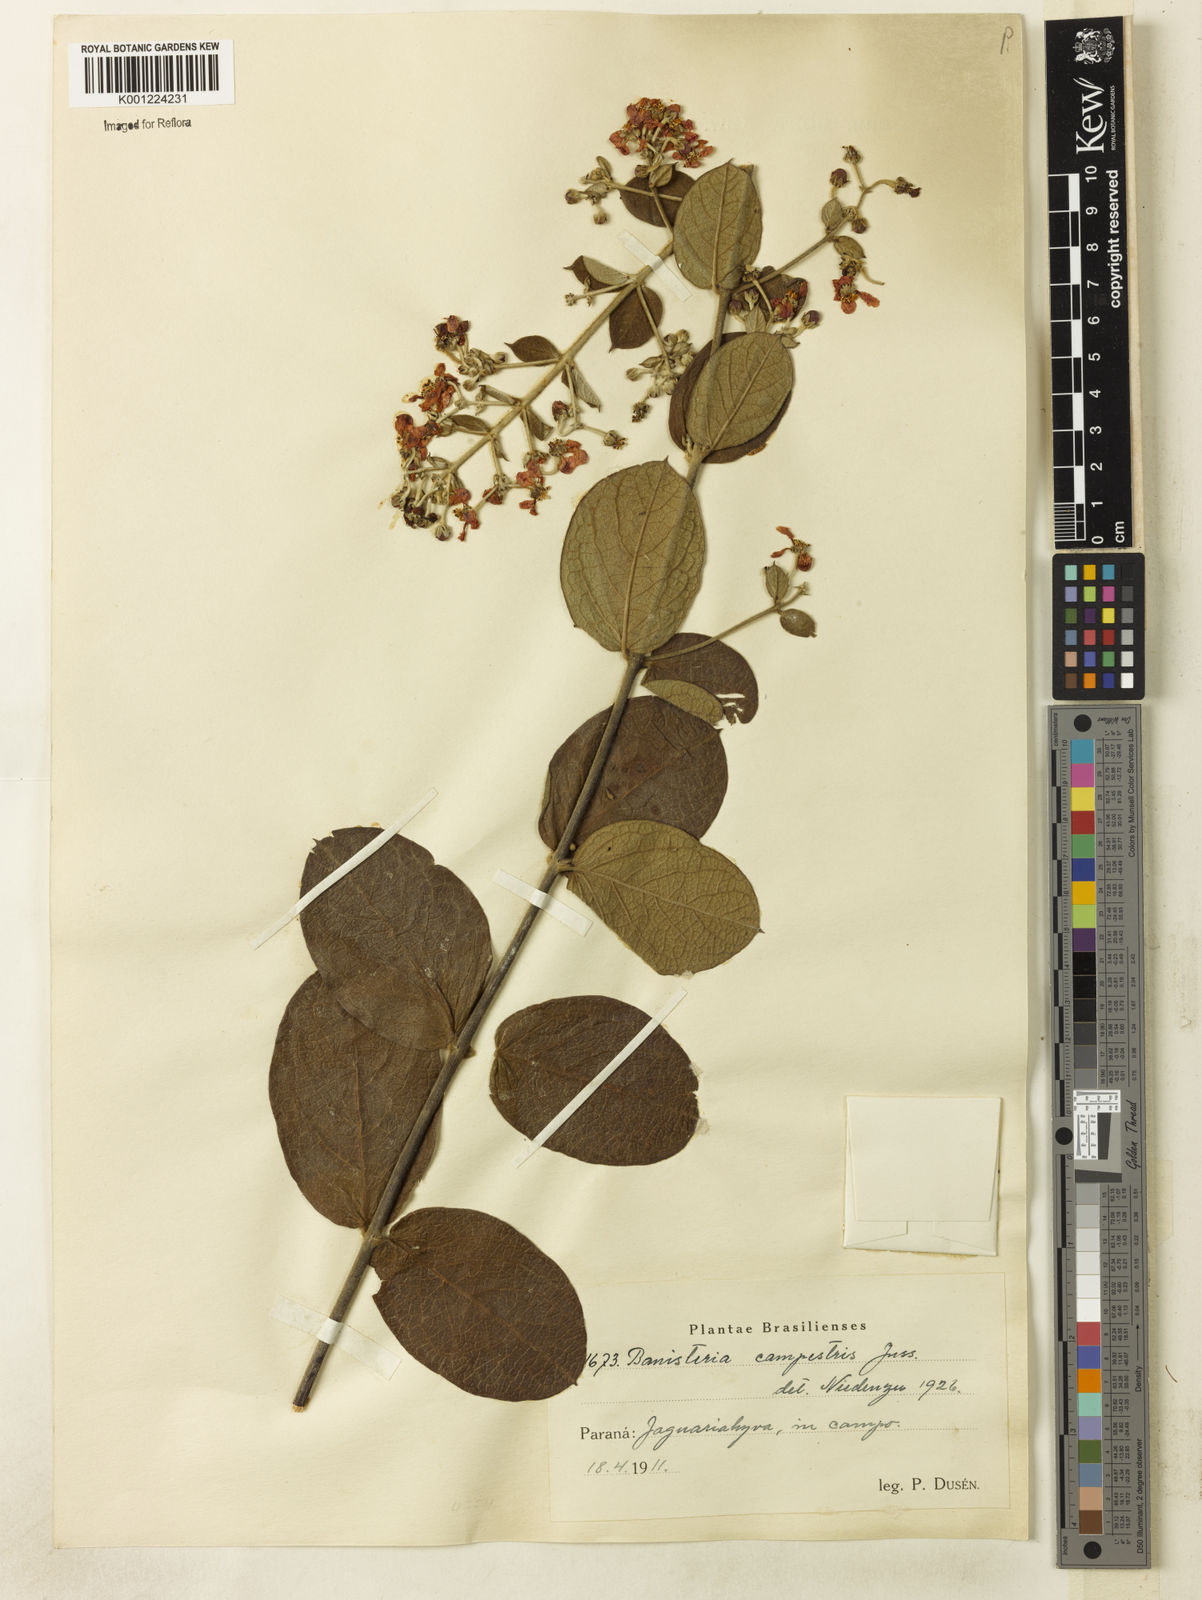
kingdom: Plantae
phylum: Tracheophyta
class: Magnoliopsida
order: Malpighiales
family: Malpighiaceae
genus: Banisteriopsis
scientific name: Banisteriopsis campestris
